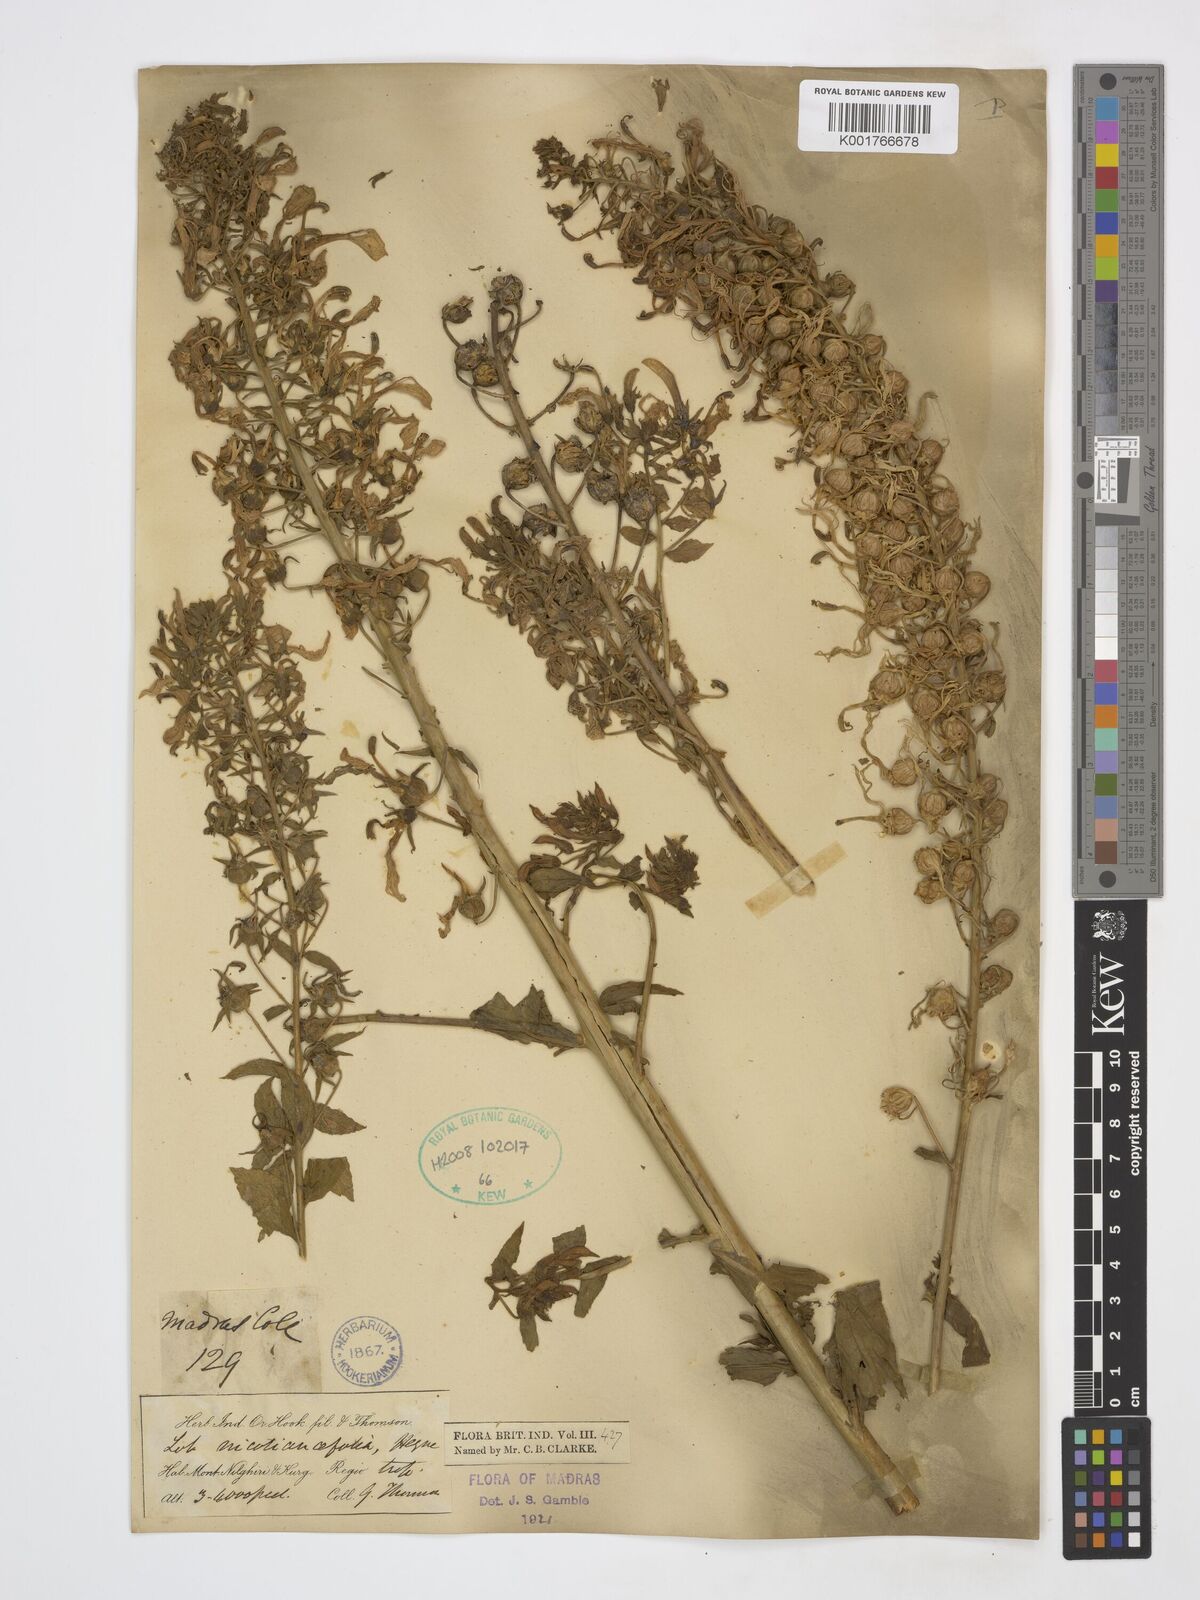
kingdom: Plantae
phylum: Tracheophyta
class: Magnoliopsida
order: Asterales
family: Campanulaceae
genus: Lobelia
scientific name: Lobelia nicotianifolia
